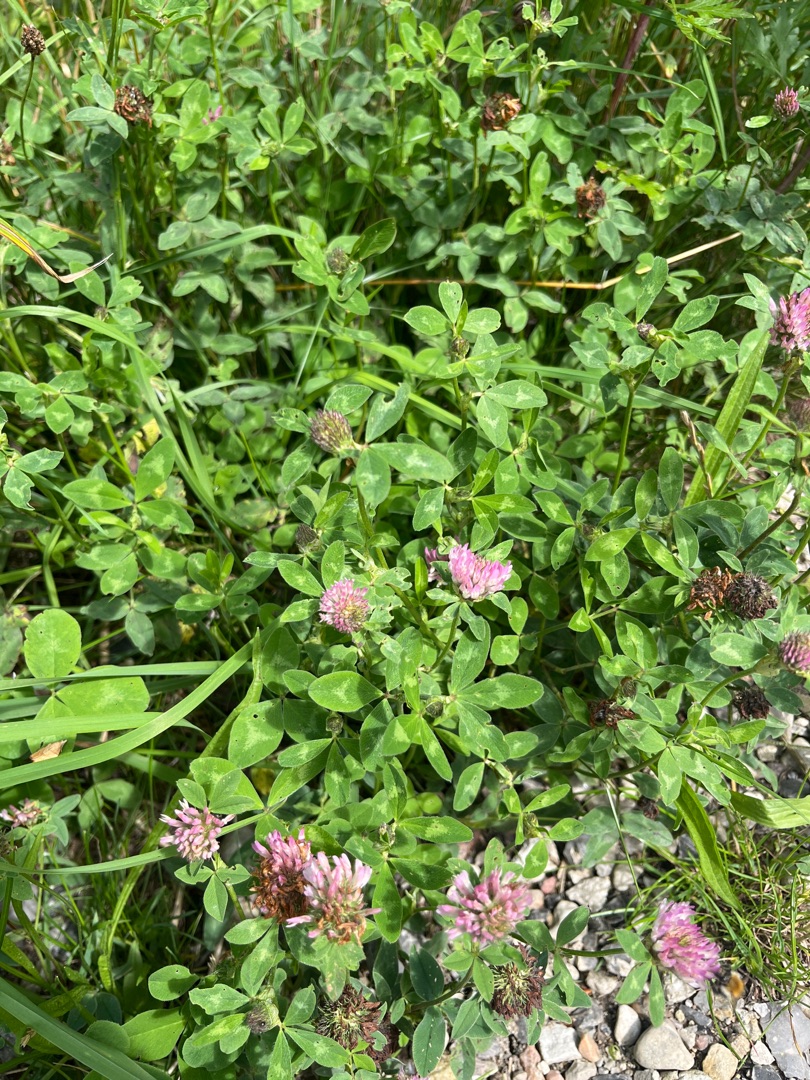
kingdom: Plantae
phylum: Tracheophyta
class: Magnoliopsida
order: Fabales
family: Fabaceae
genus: Trifolium
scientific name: Trifolium pratense
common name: Rød-kløver
